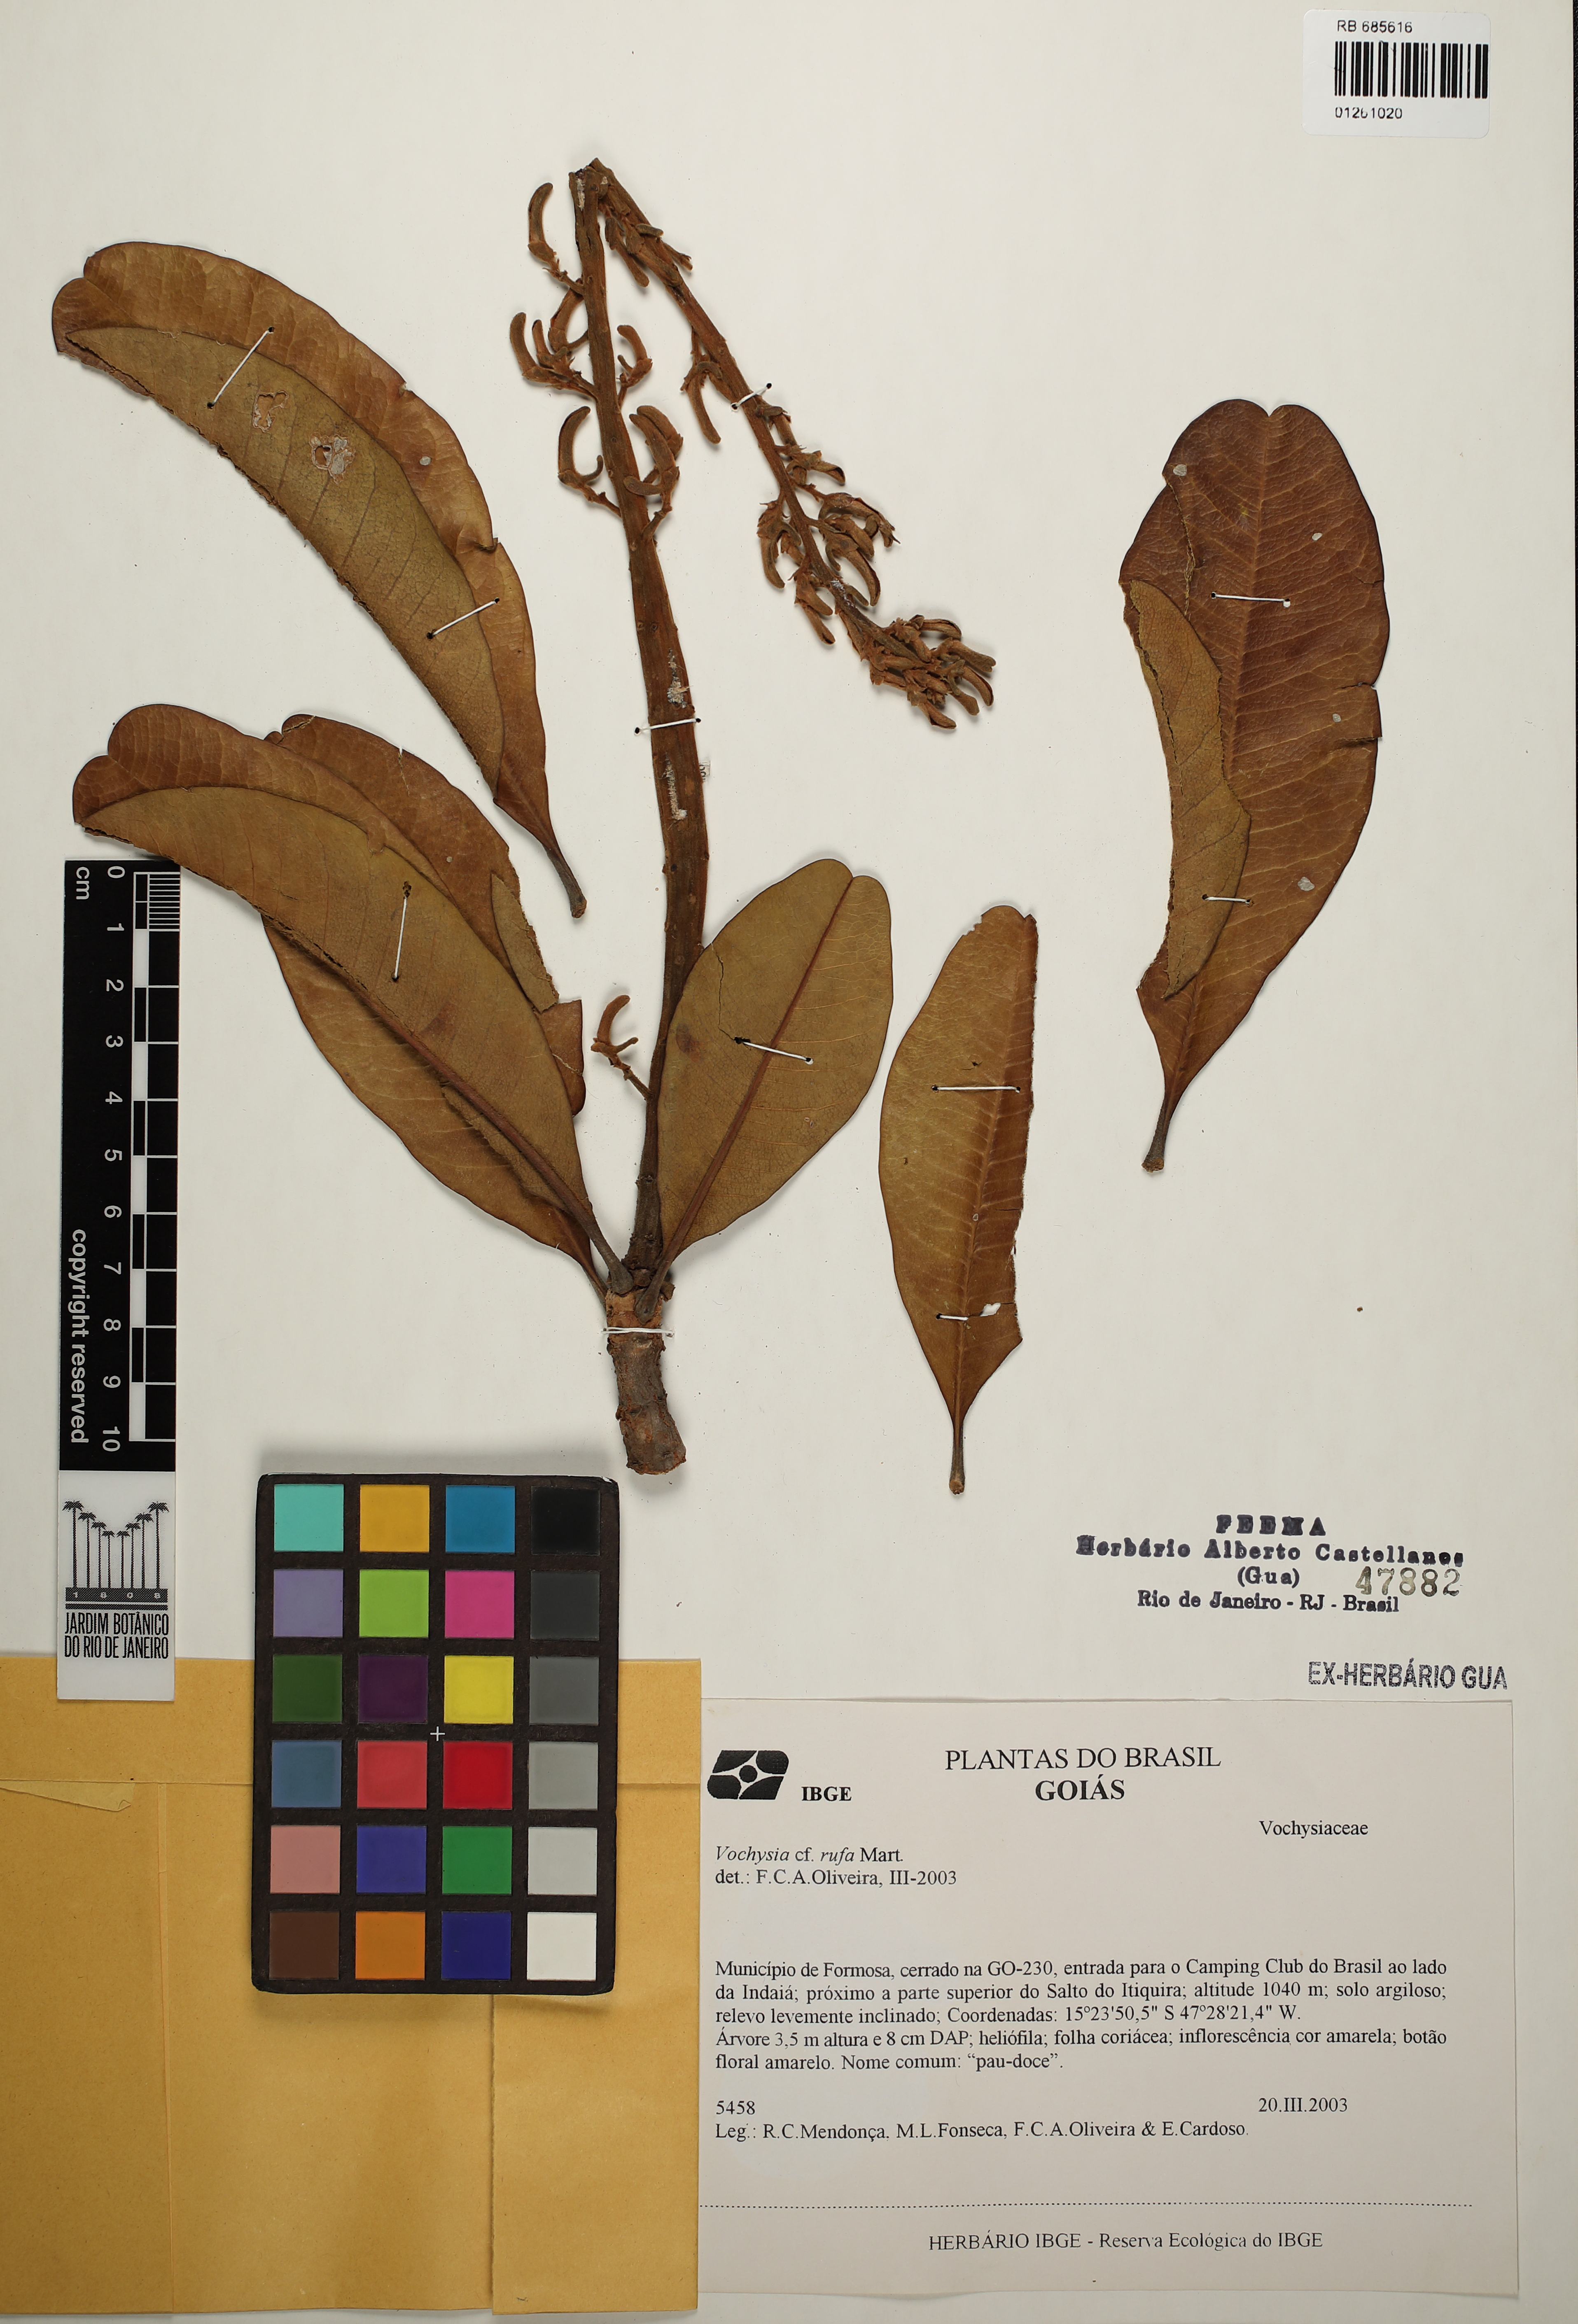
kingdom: Plantae
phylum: Tracheophyta
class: Magnoliopsida
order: Myrtales
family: Vochysiaceae
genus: Vochysia
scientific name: Vochysia rufa
